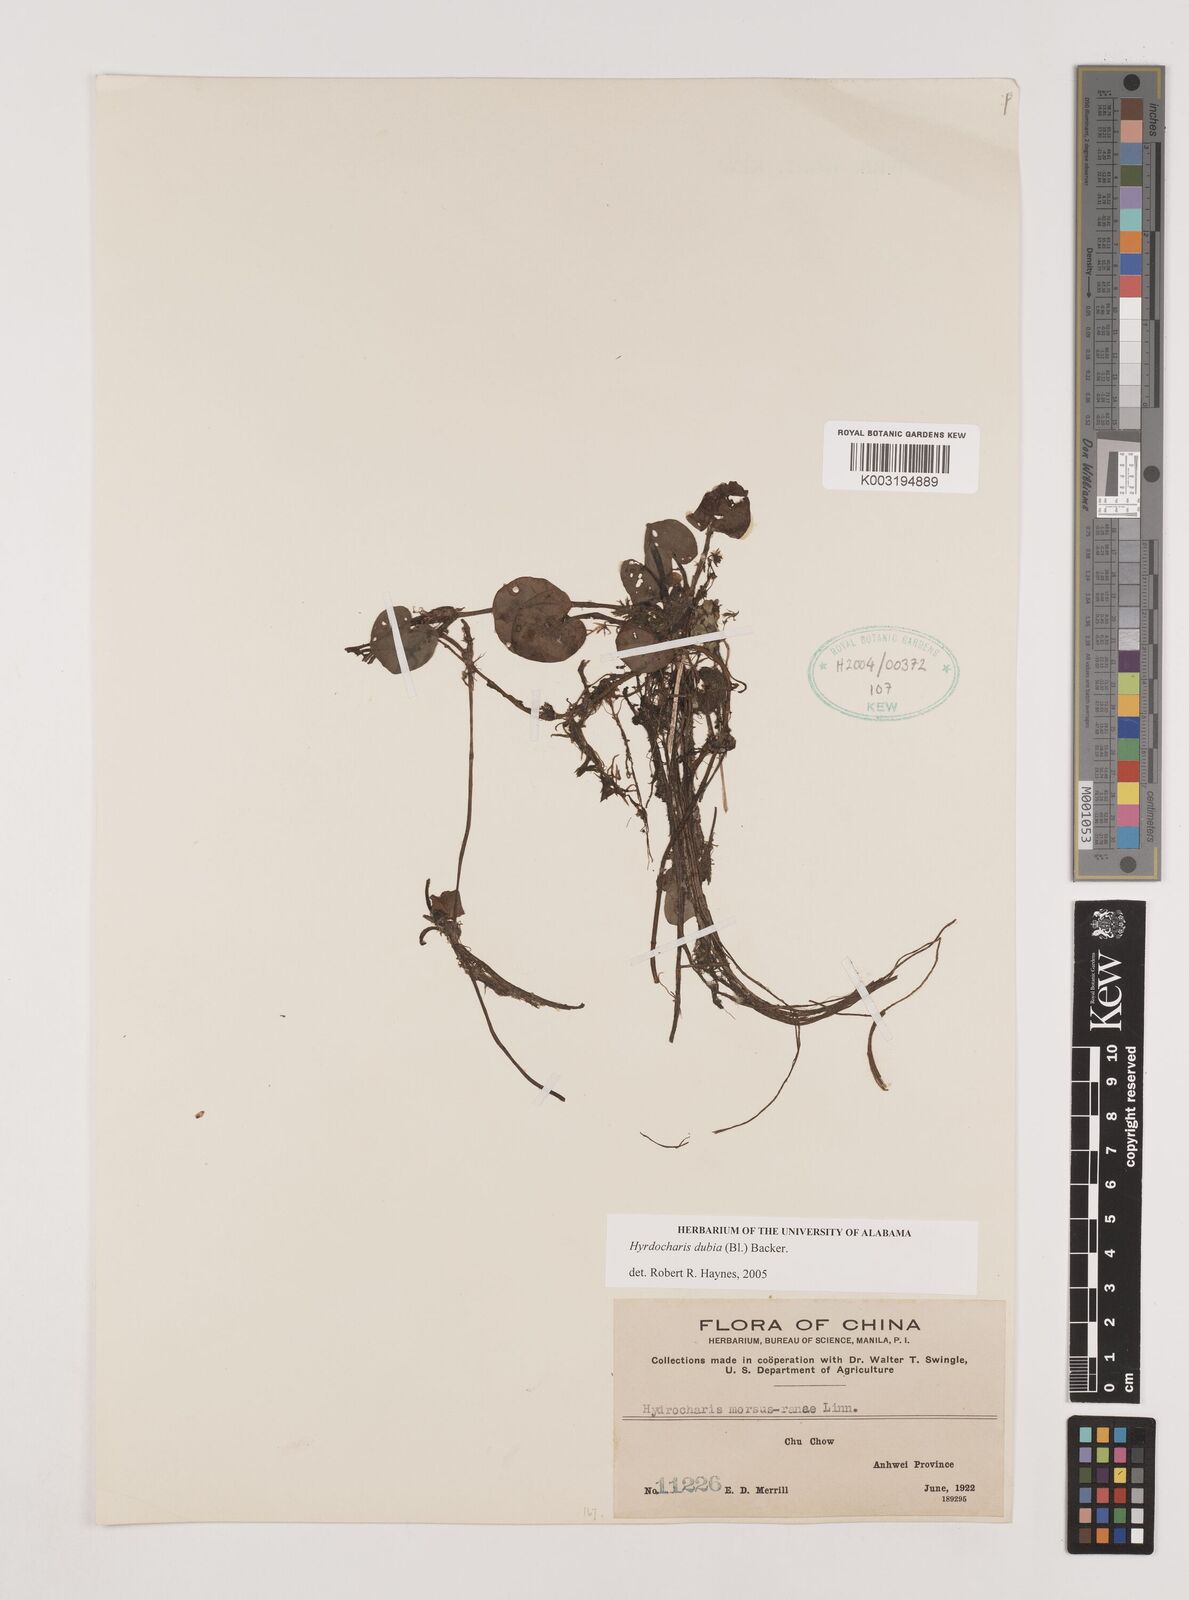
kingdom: Plantae
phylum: Tracheophyta
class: Liliopsida
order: Alismatales
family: Hydrocharitaceae
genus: Hydrocharis
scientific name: Hydrocharis dubia
